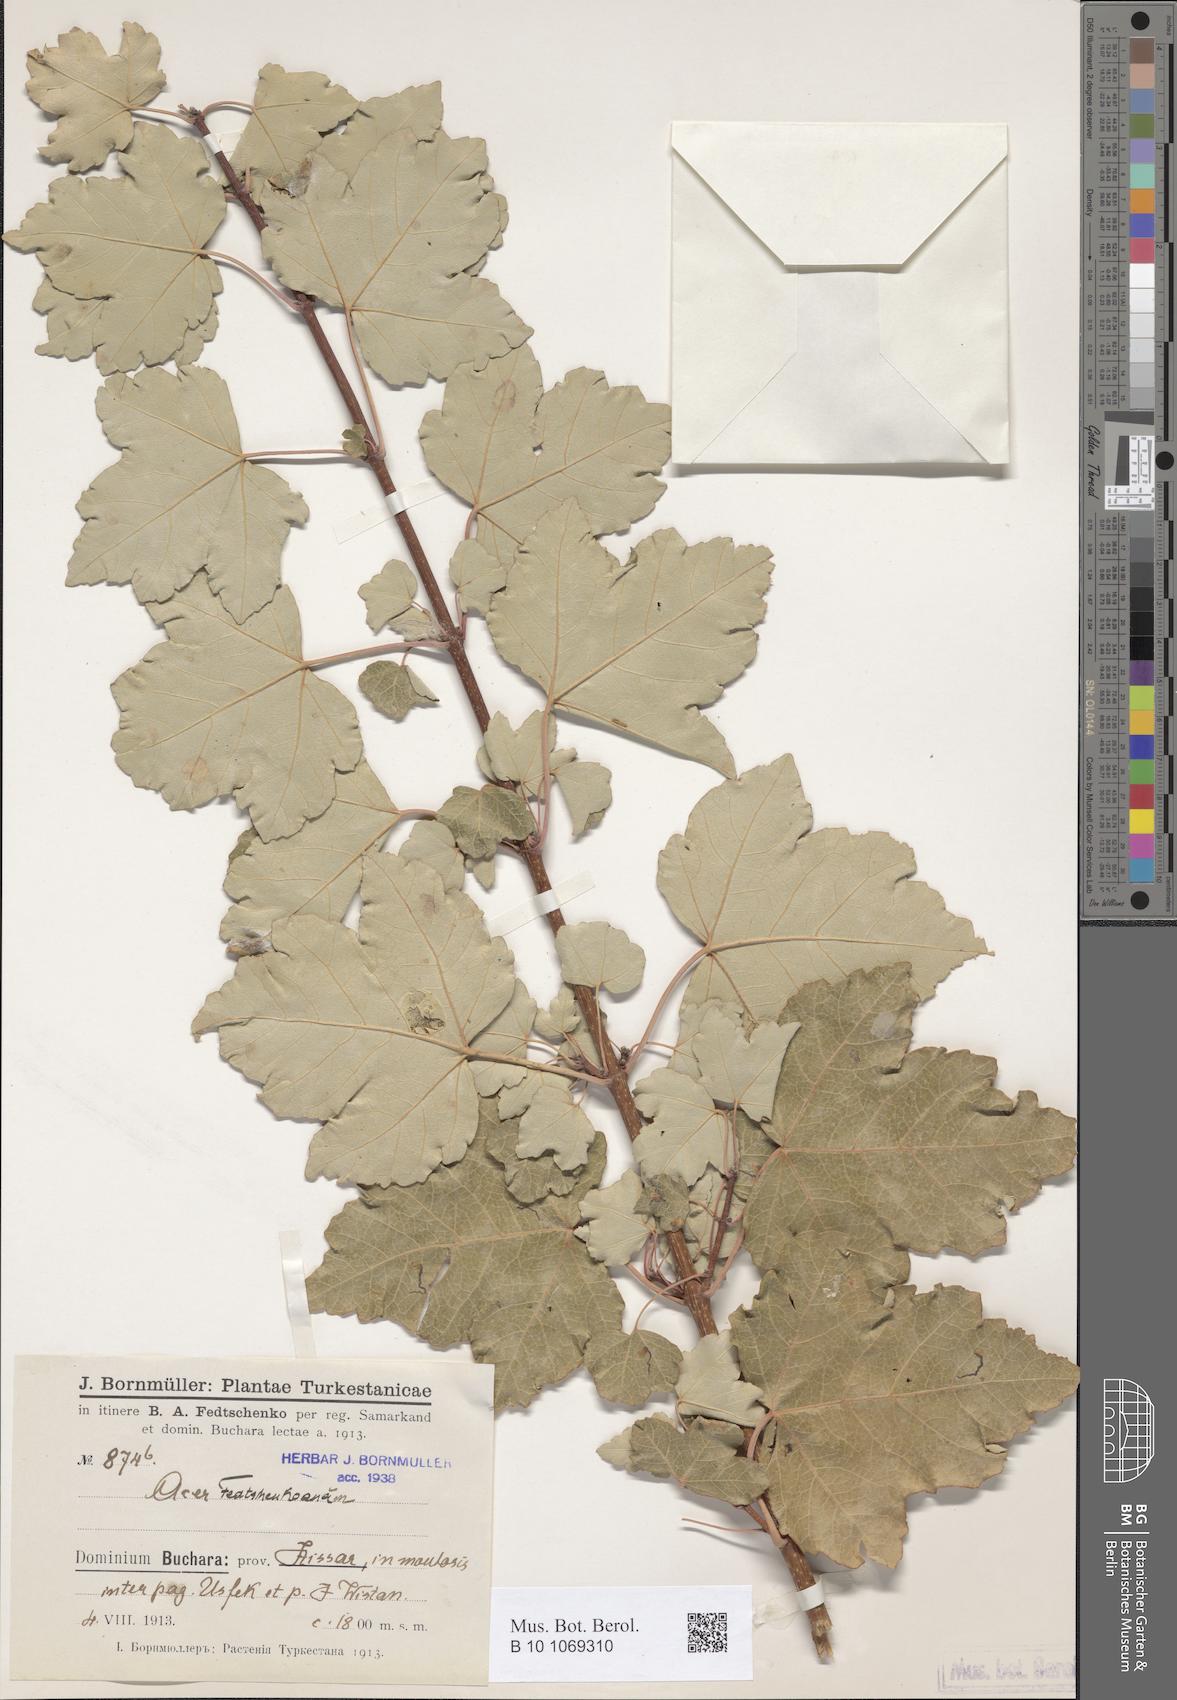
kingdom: Plantae
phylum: Tracheophyta
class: Magnoliopsida
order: Sapindales
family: Sapindaceae
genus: Acer
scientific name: Acer pentapomicum
